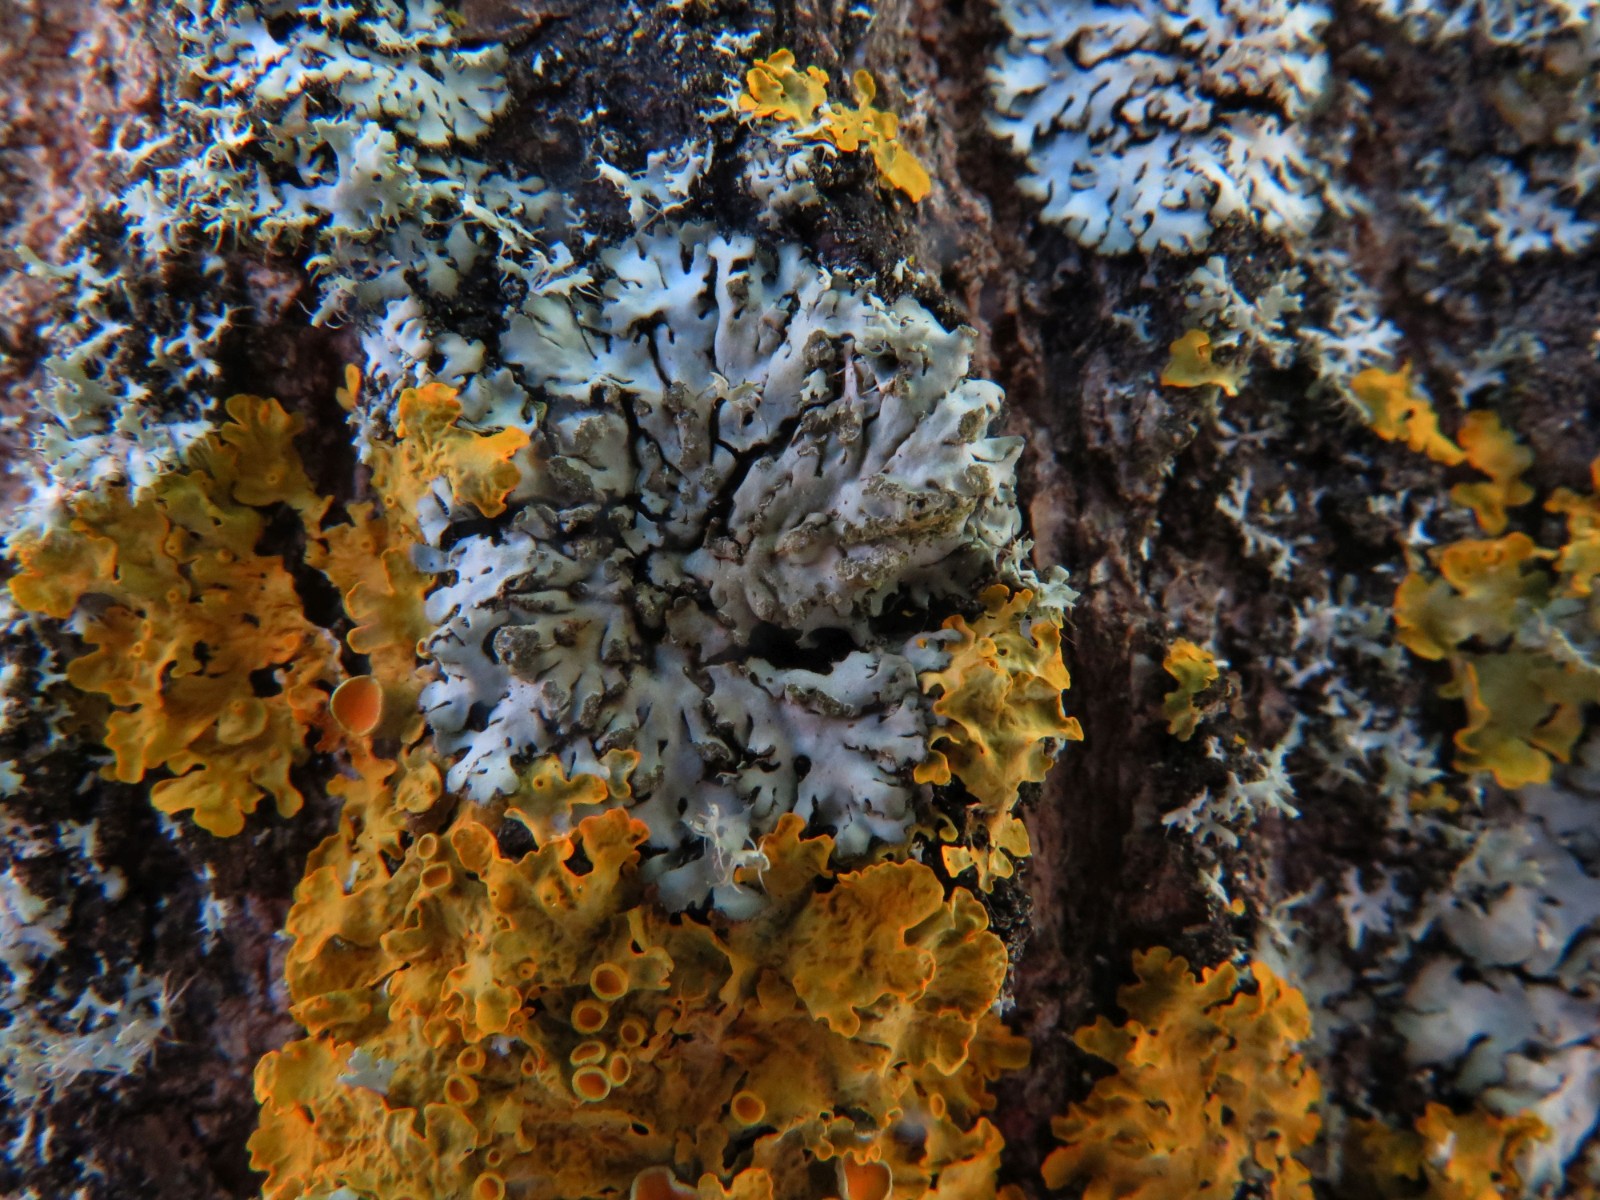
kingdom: Fungi
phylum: Ascomycota
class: Lecanoromycetes
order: Caliciales
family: Physciaceae
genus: Phaeophyscia
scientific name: Phaeophyscia orbicularis
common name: grågrøn rosetlav
